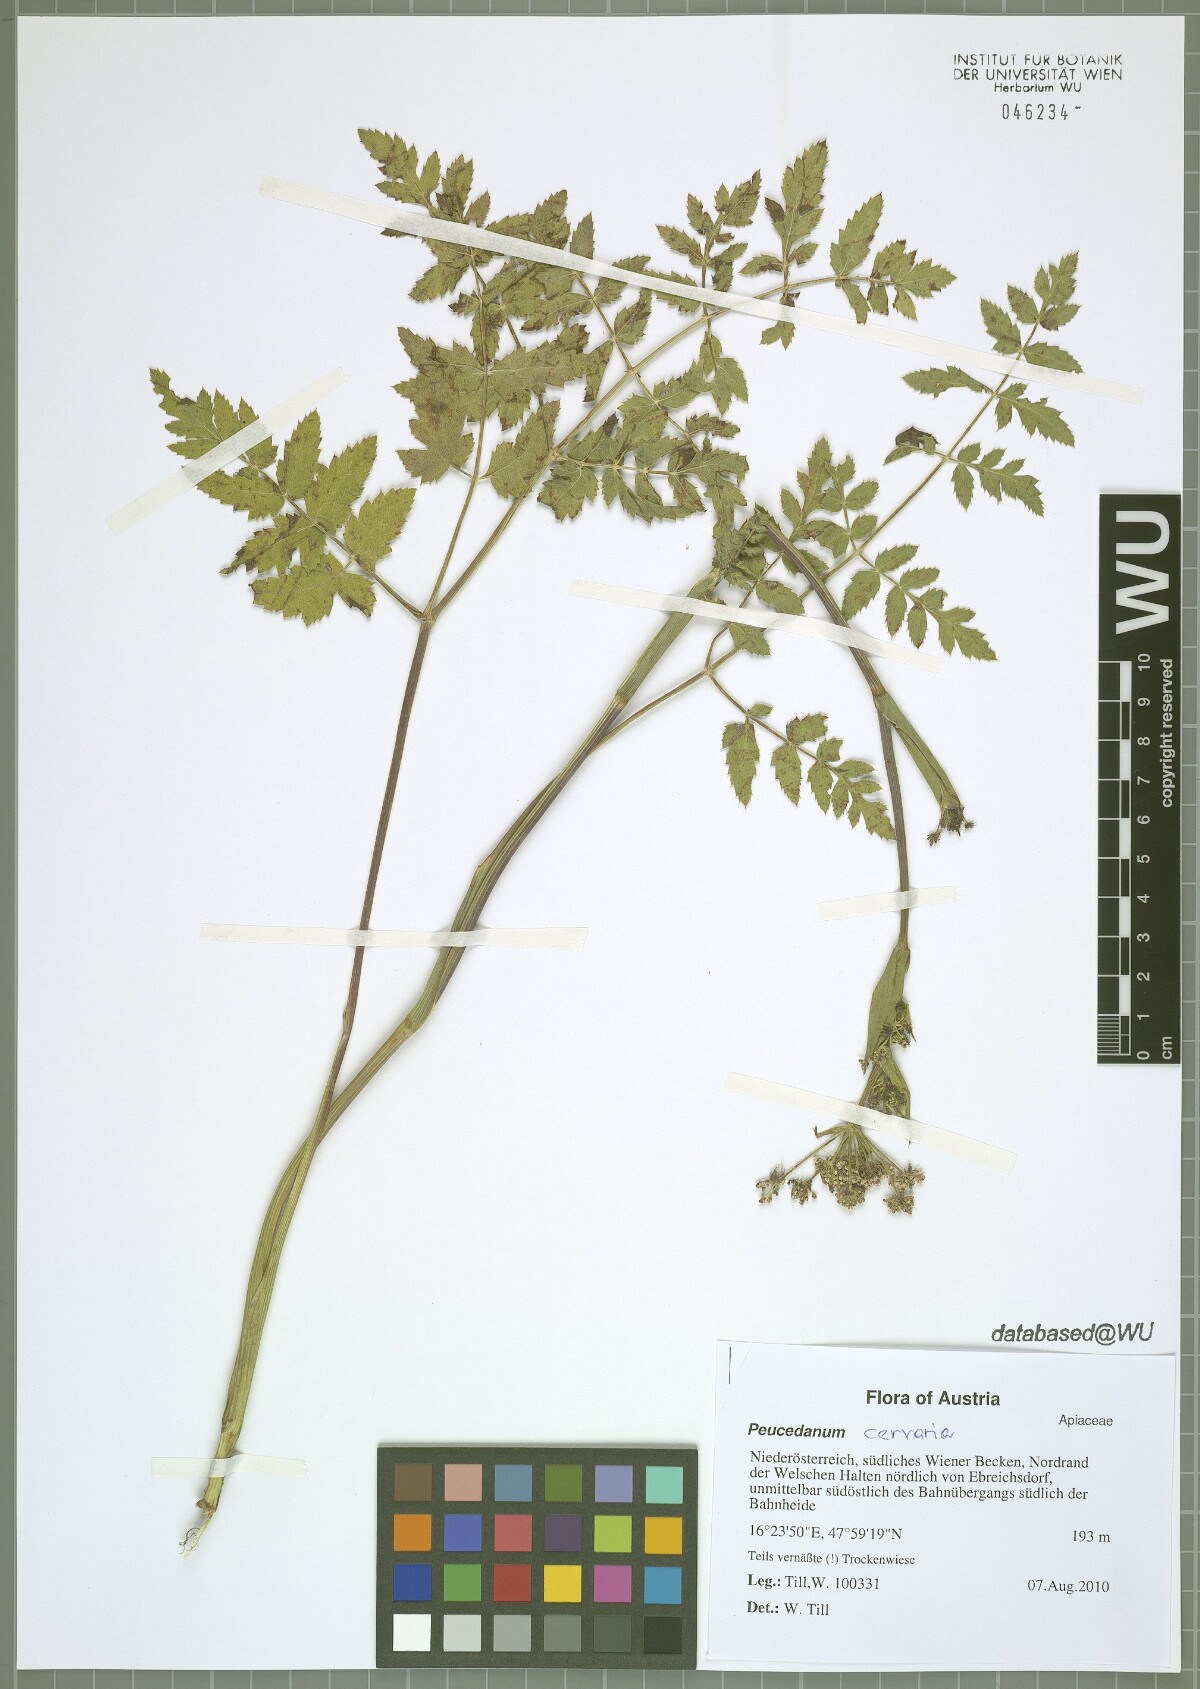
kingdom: Plantae
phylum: Tracheophyta
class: Magnoliopsida
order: Apiales
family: Apiaceae
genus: Cervaria
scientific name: Cervaria rivini
